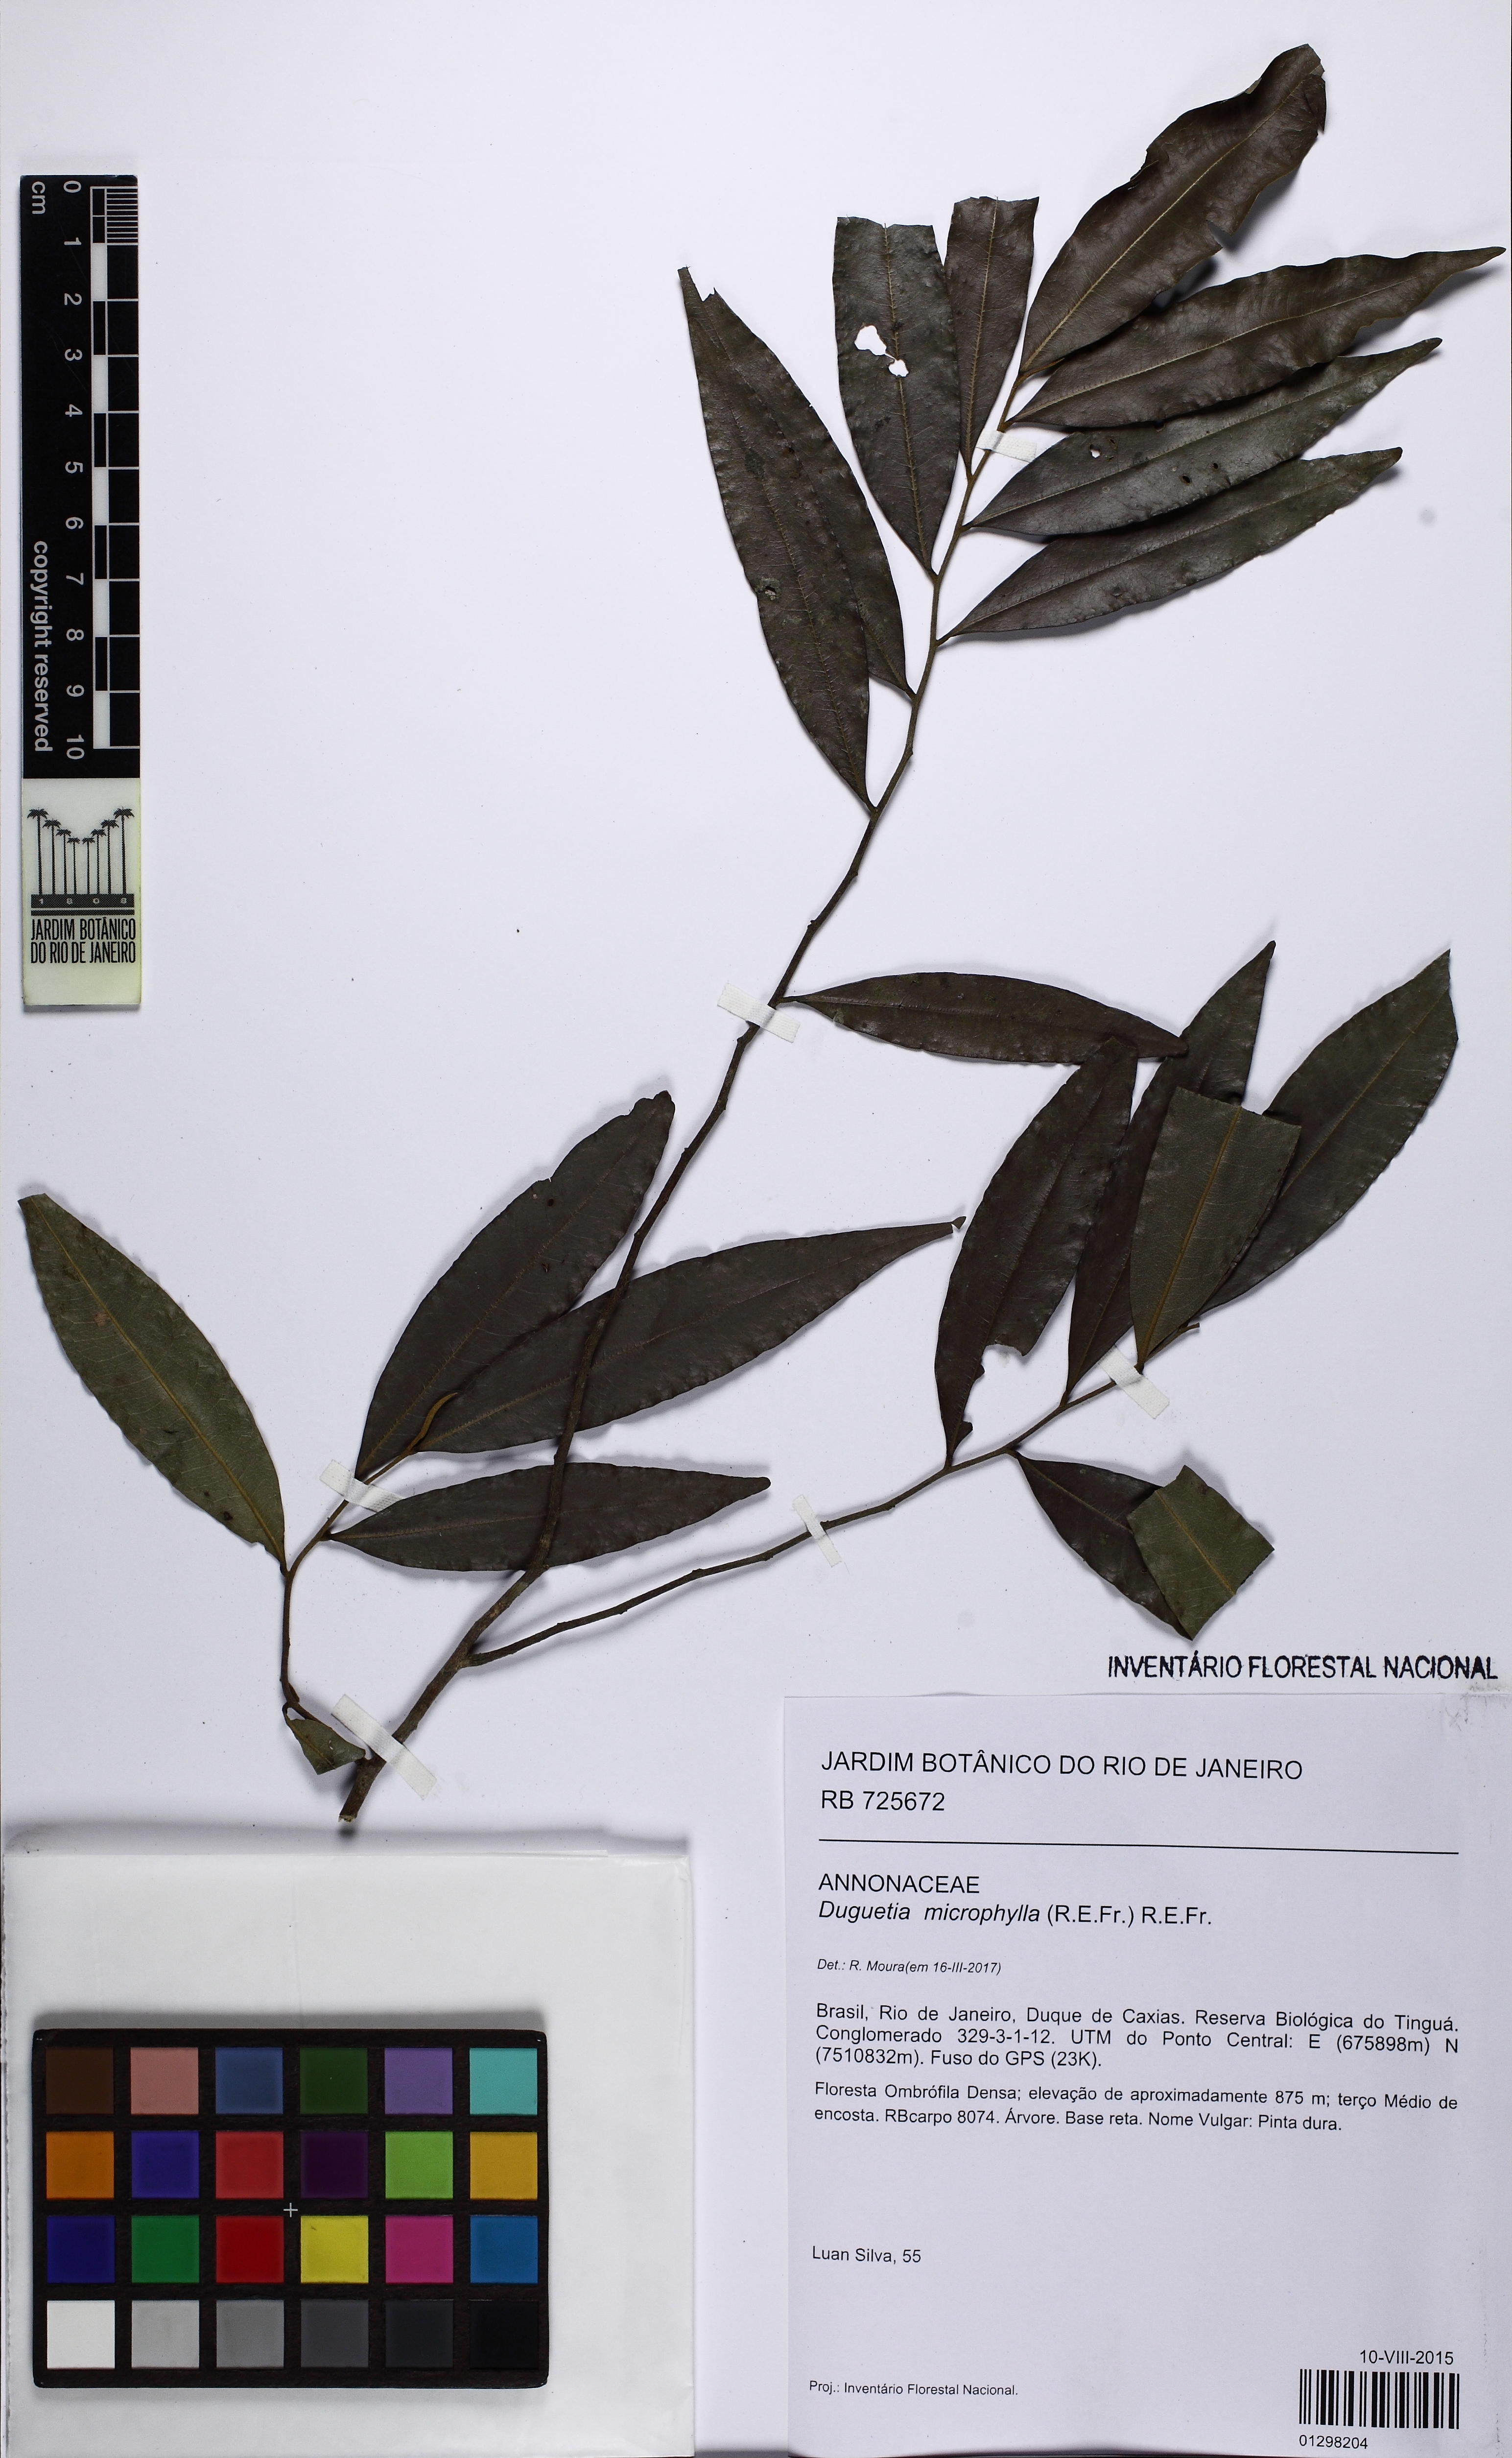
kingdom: Plantae
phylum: Tracheophyta
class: Magnoliopsida
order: Magnoliales
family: Annonaceae
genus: Duguetia
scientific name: Duguetia microphylla
